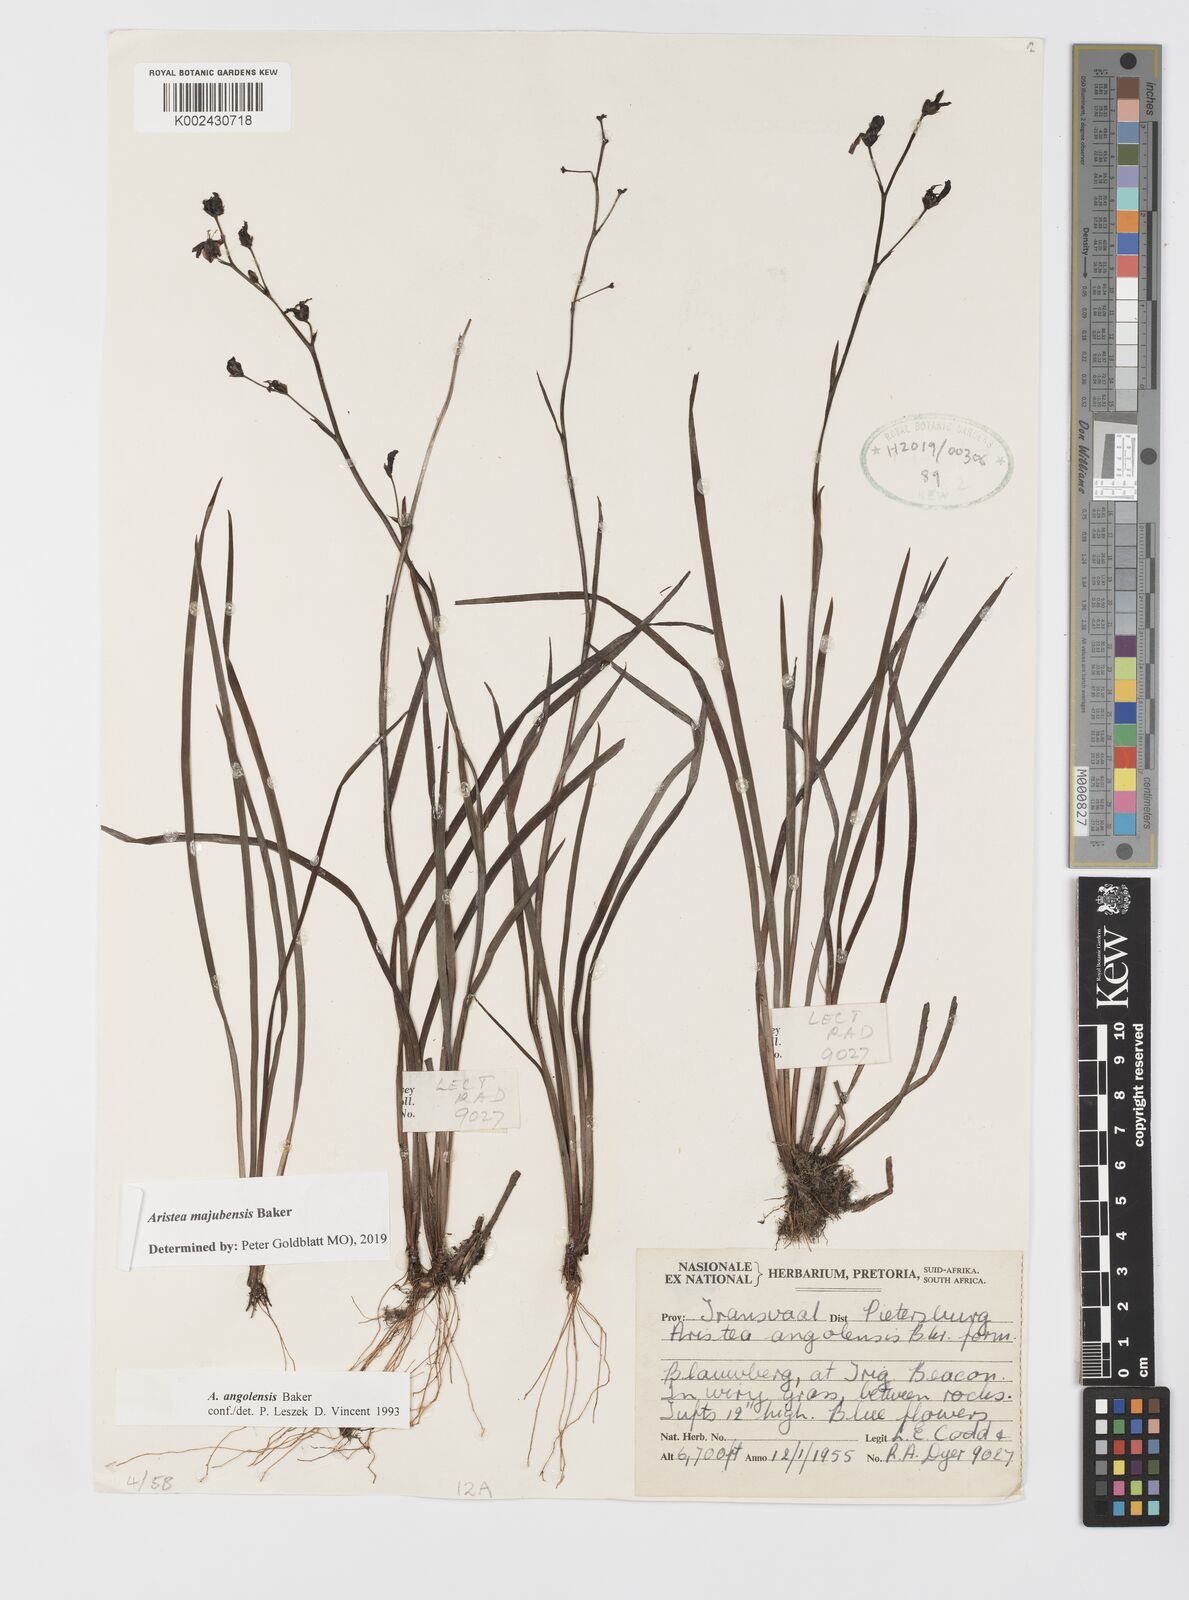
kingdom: Plantae
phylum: Tracheophyta
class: Liliopsida
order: Asparagales
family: Iridaceae
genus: Aristea
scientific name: Aristea majubensis
